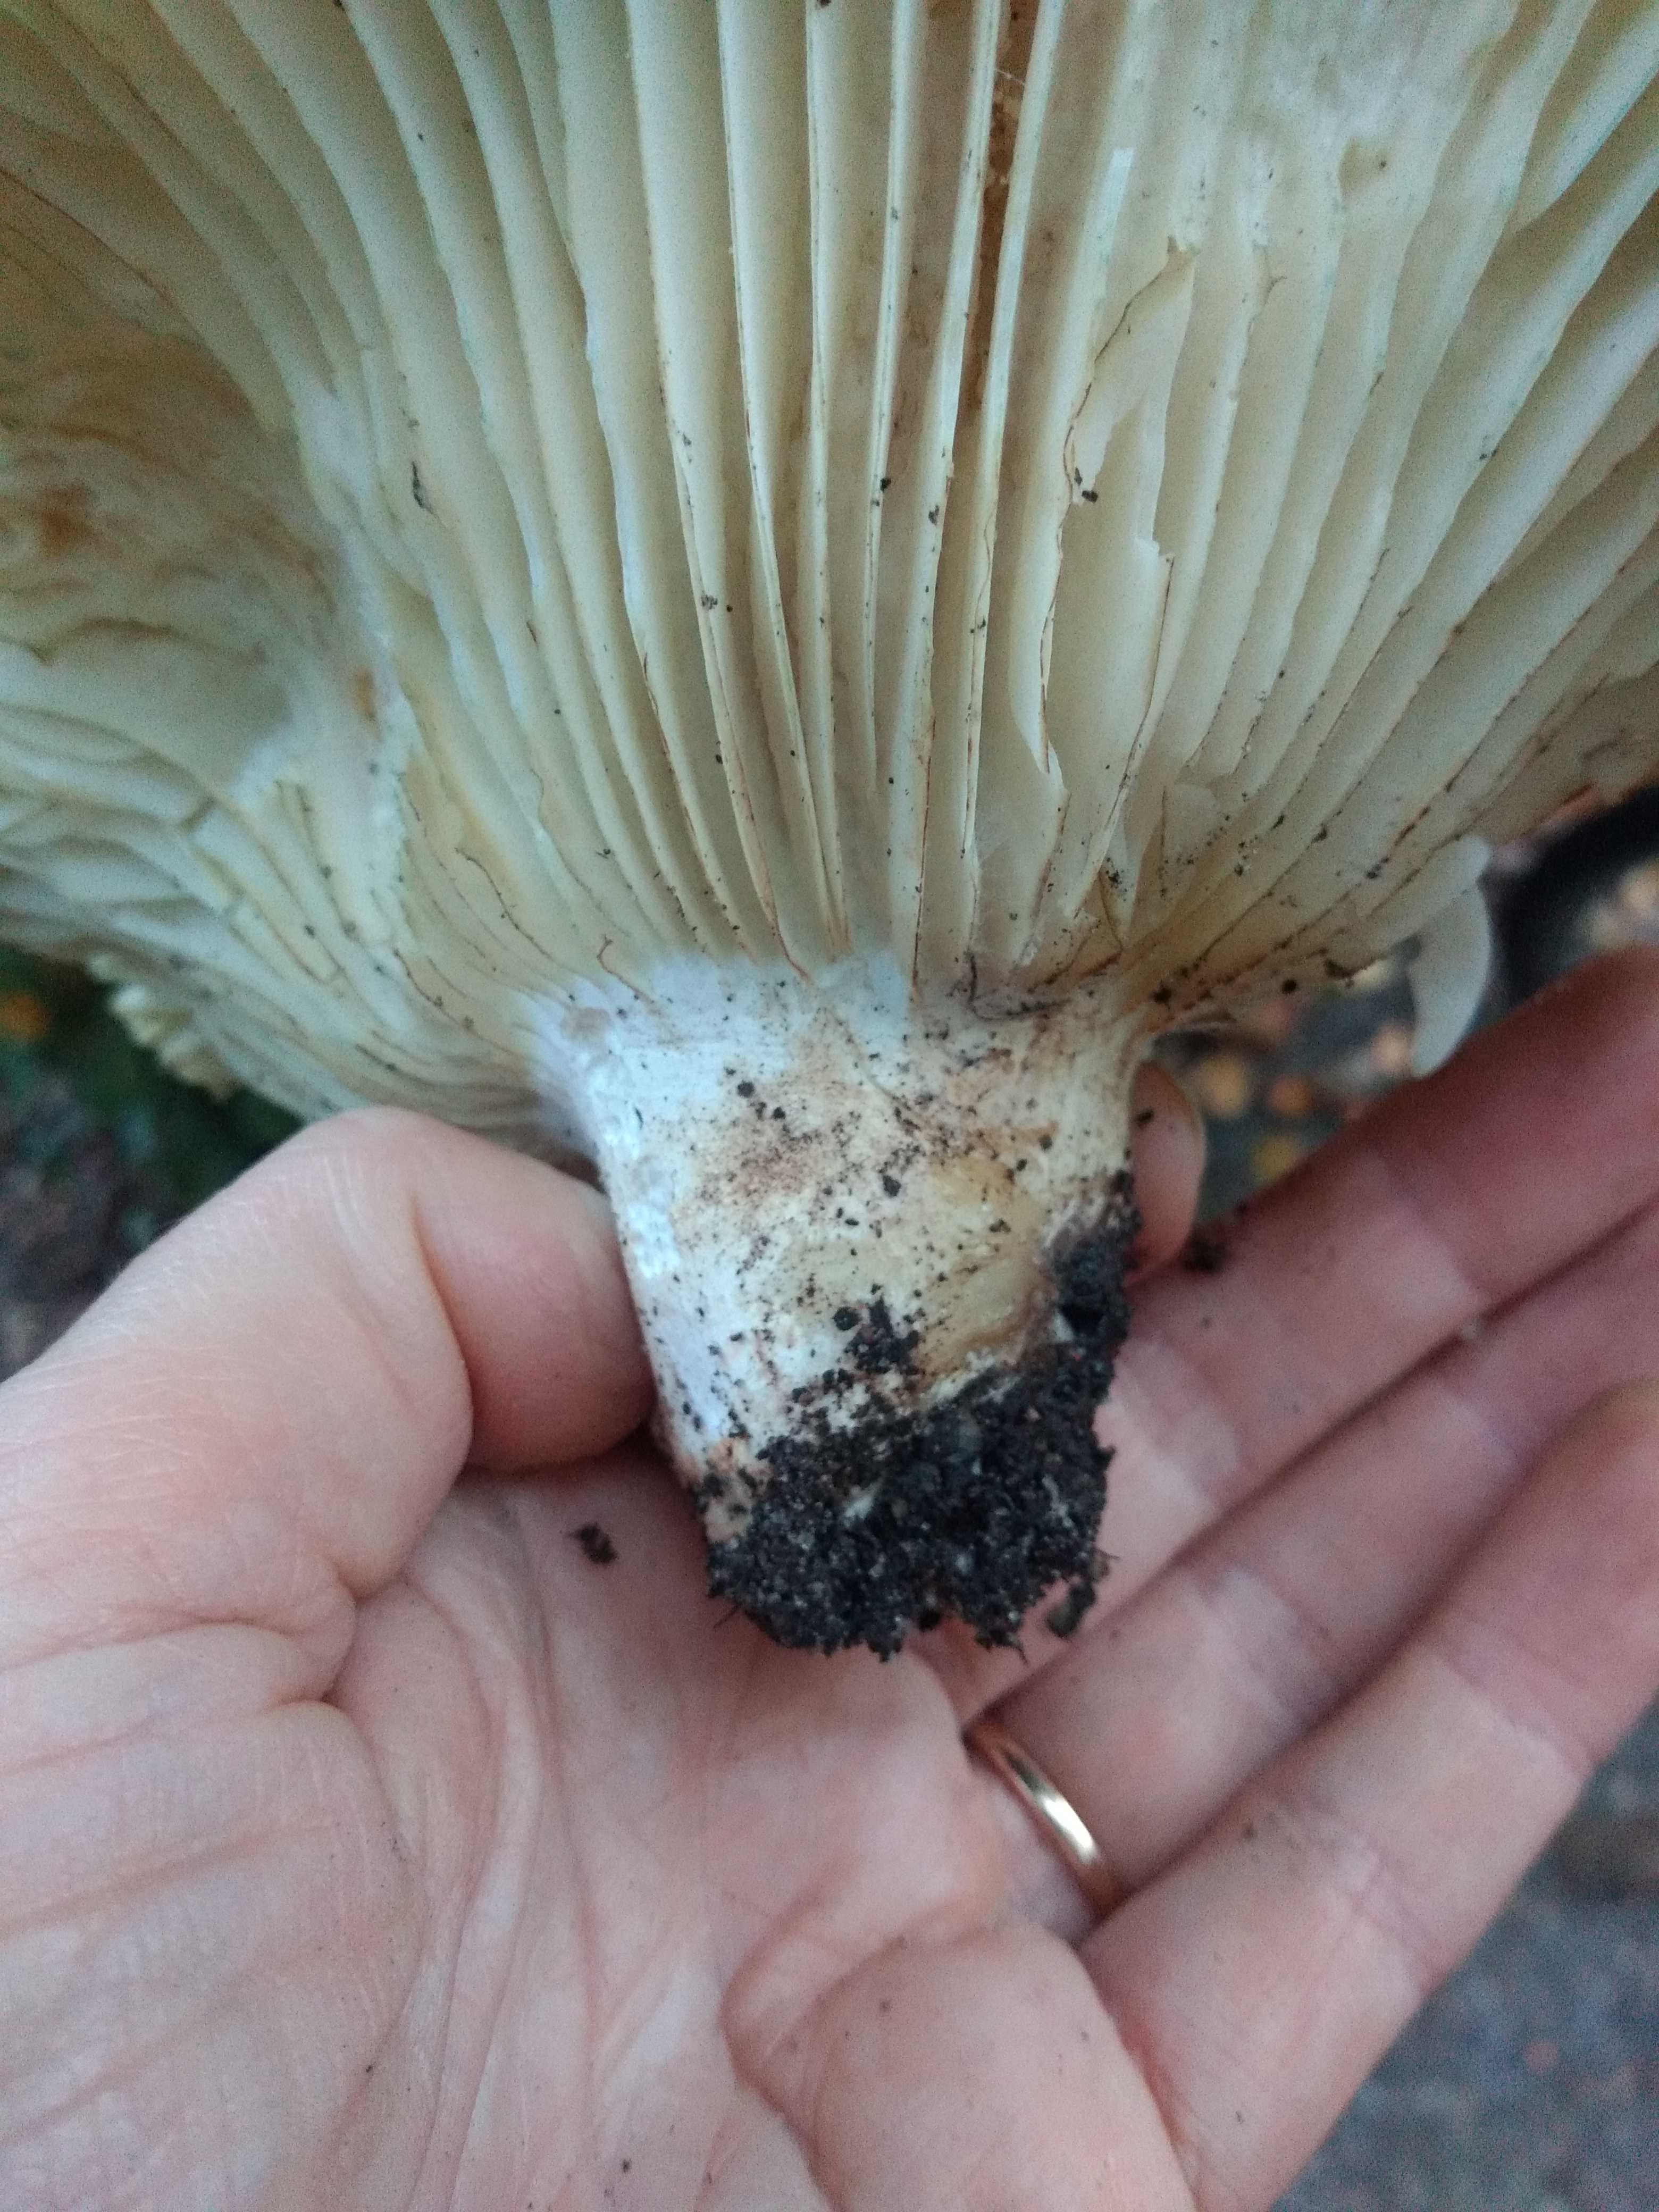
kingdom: Fungi
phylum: Basidiomycota
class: Agaricomycetes
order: Russulales
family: Russulaceae
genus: Russula
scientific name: Russula chloroides
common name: grønhalset tragt-skørhat
